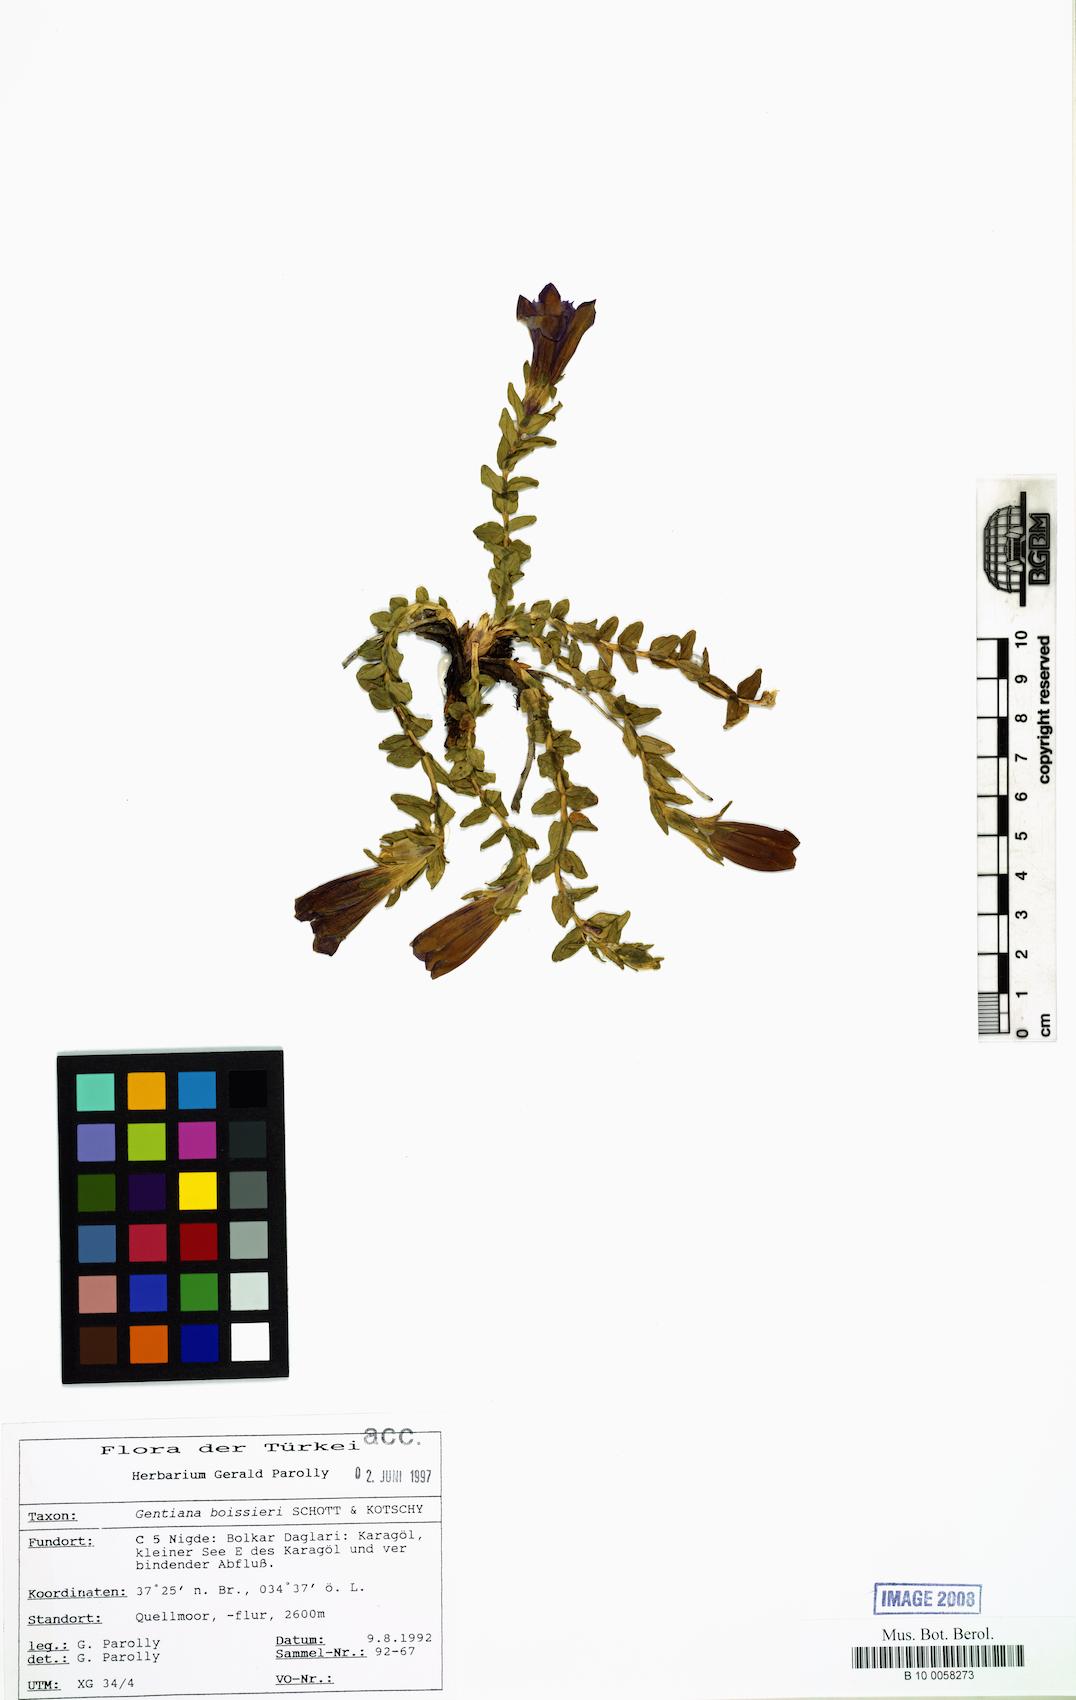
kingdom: Plantae
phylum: Tracheophyta
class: Magnoliopsida
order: Gentianales
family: Gentianaceae
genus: Gentiana
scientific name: Gentiana boissieri
